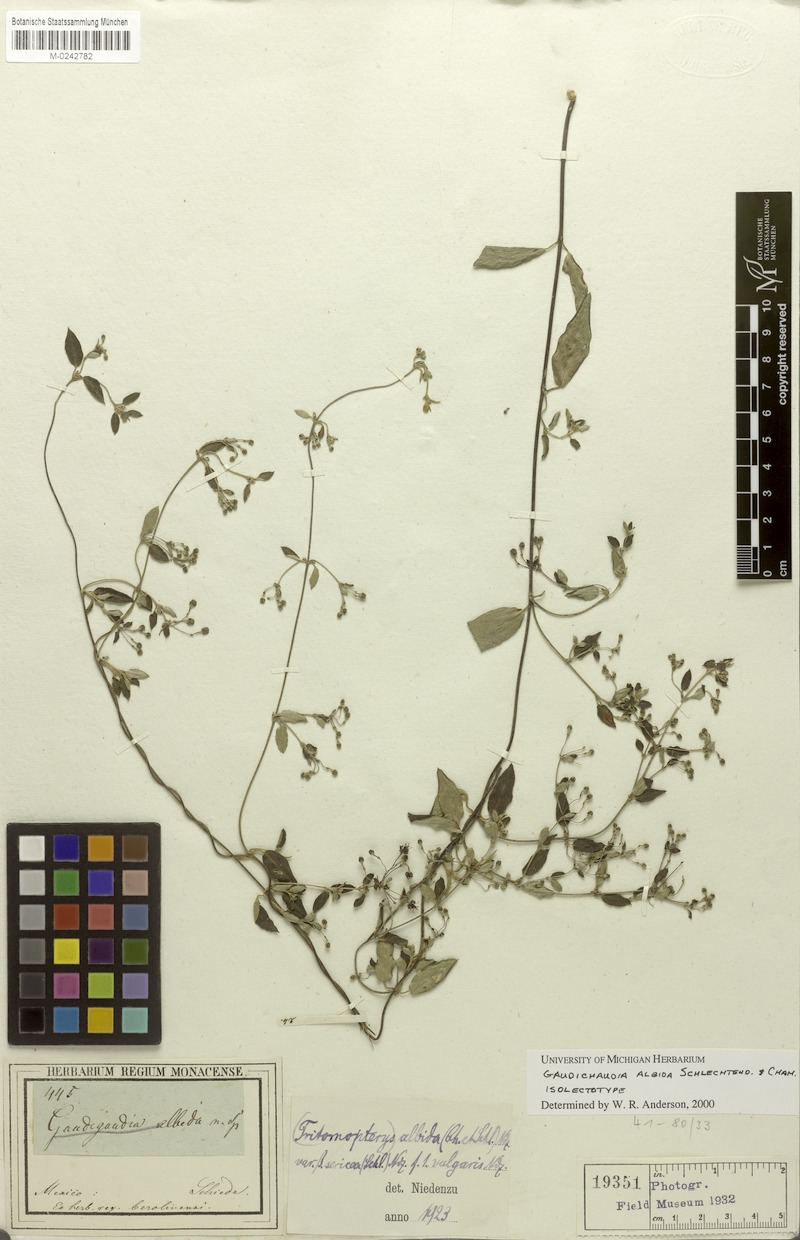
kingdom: Plantae
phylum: Tracheophyta
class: Magnoliopsida
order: Malpighiales
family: Malpighiaceae
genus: Gaudichaudia
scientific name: Gaudichaudia albida
